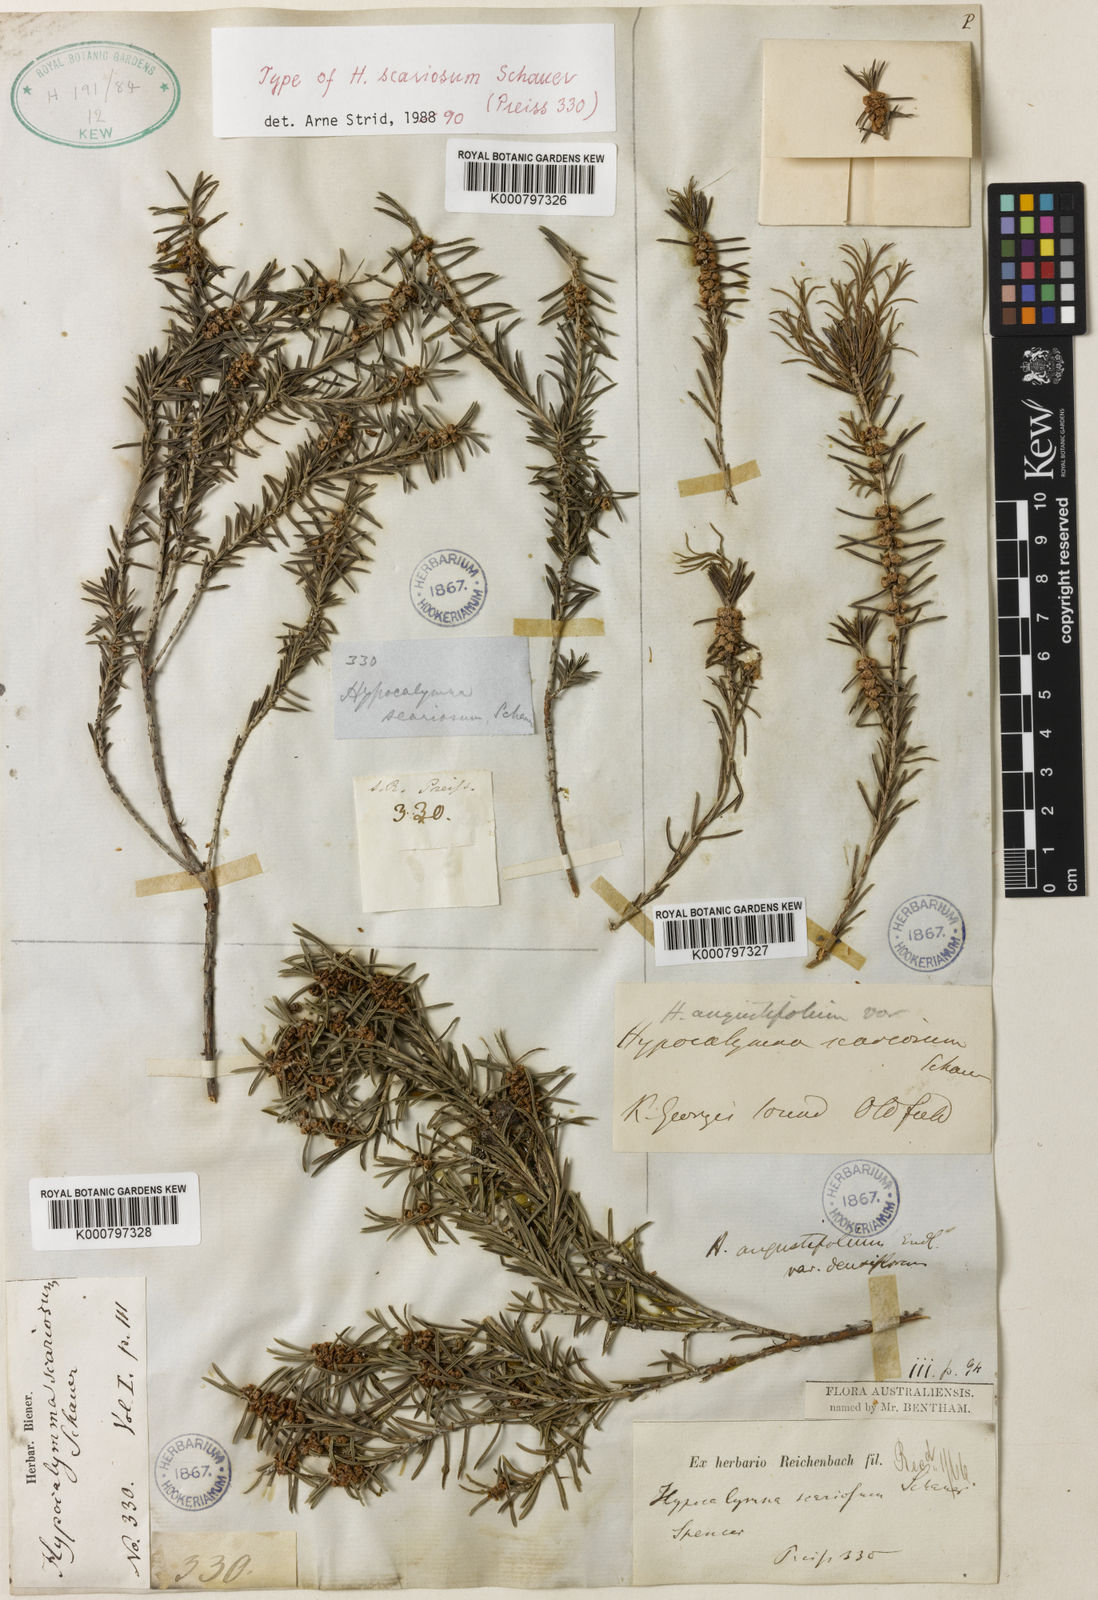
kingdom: Plantae
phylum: Tracheophyta
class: Magnoliopsida
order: Myrtales
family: Myrtaceae
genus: Hypocalymma
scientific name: Hypocalymma angustifolium
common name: White myrtle
